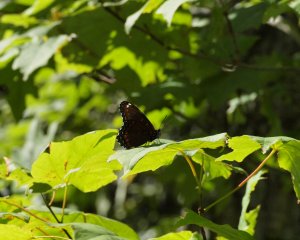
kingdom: Animalia
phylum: Arthropoda
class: Insecta
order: Lepidoptera
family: Nymphalidae
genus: Limenitis
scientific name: Limenitis astyanax
